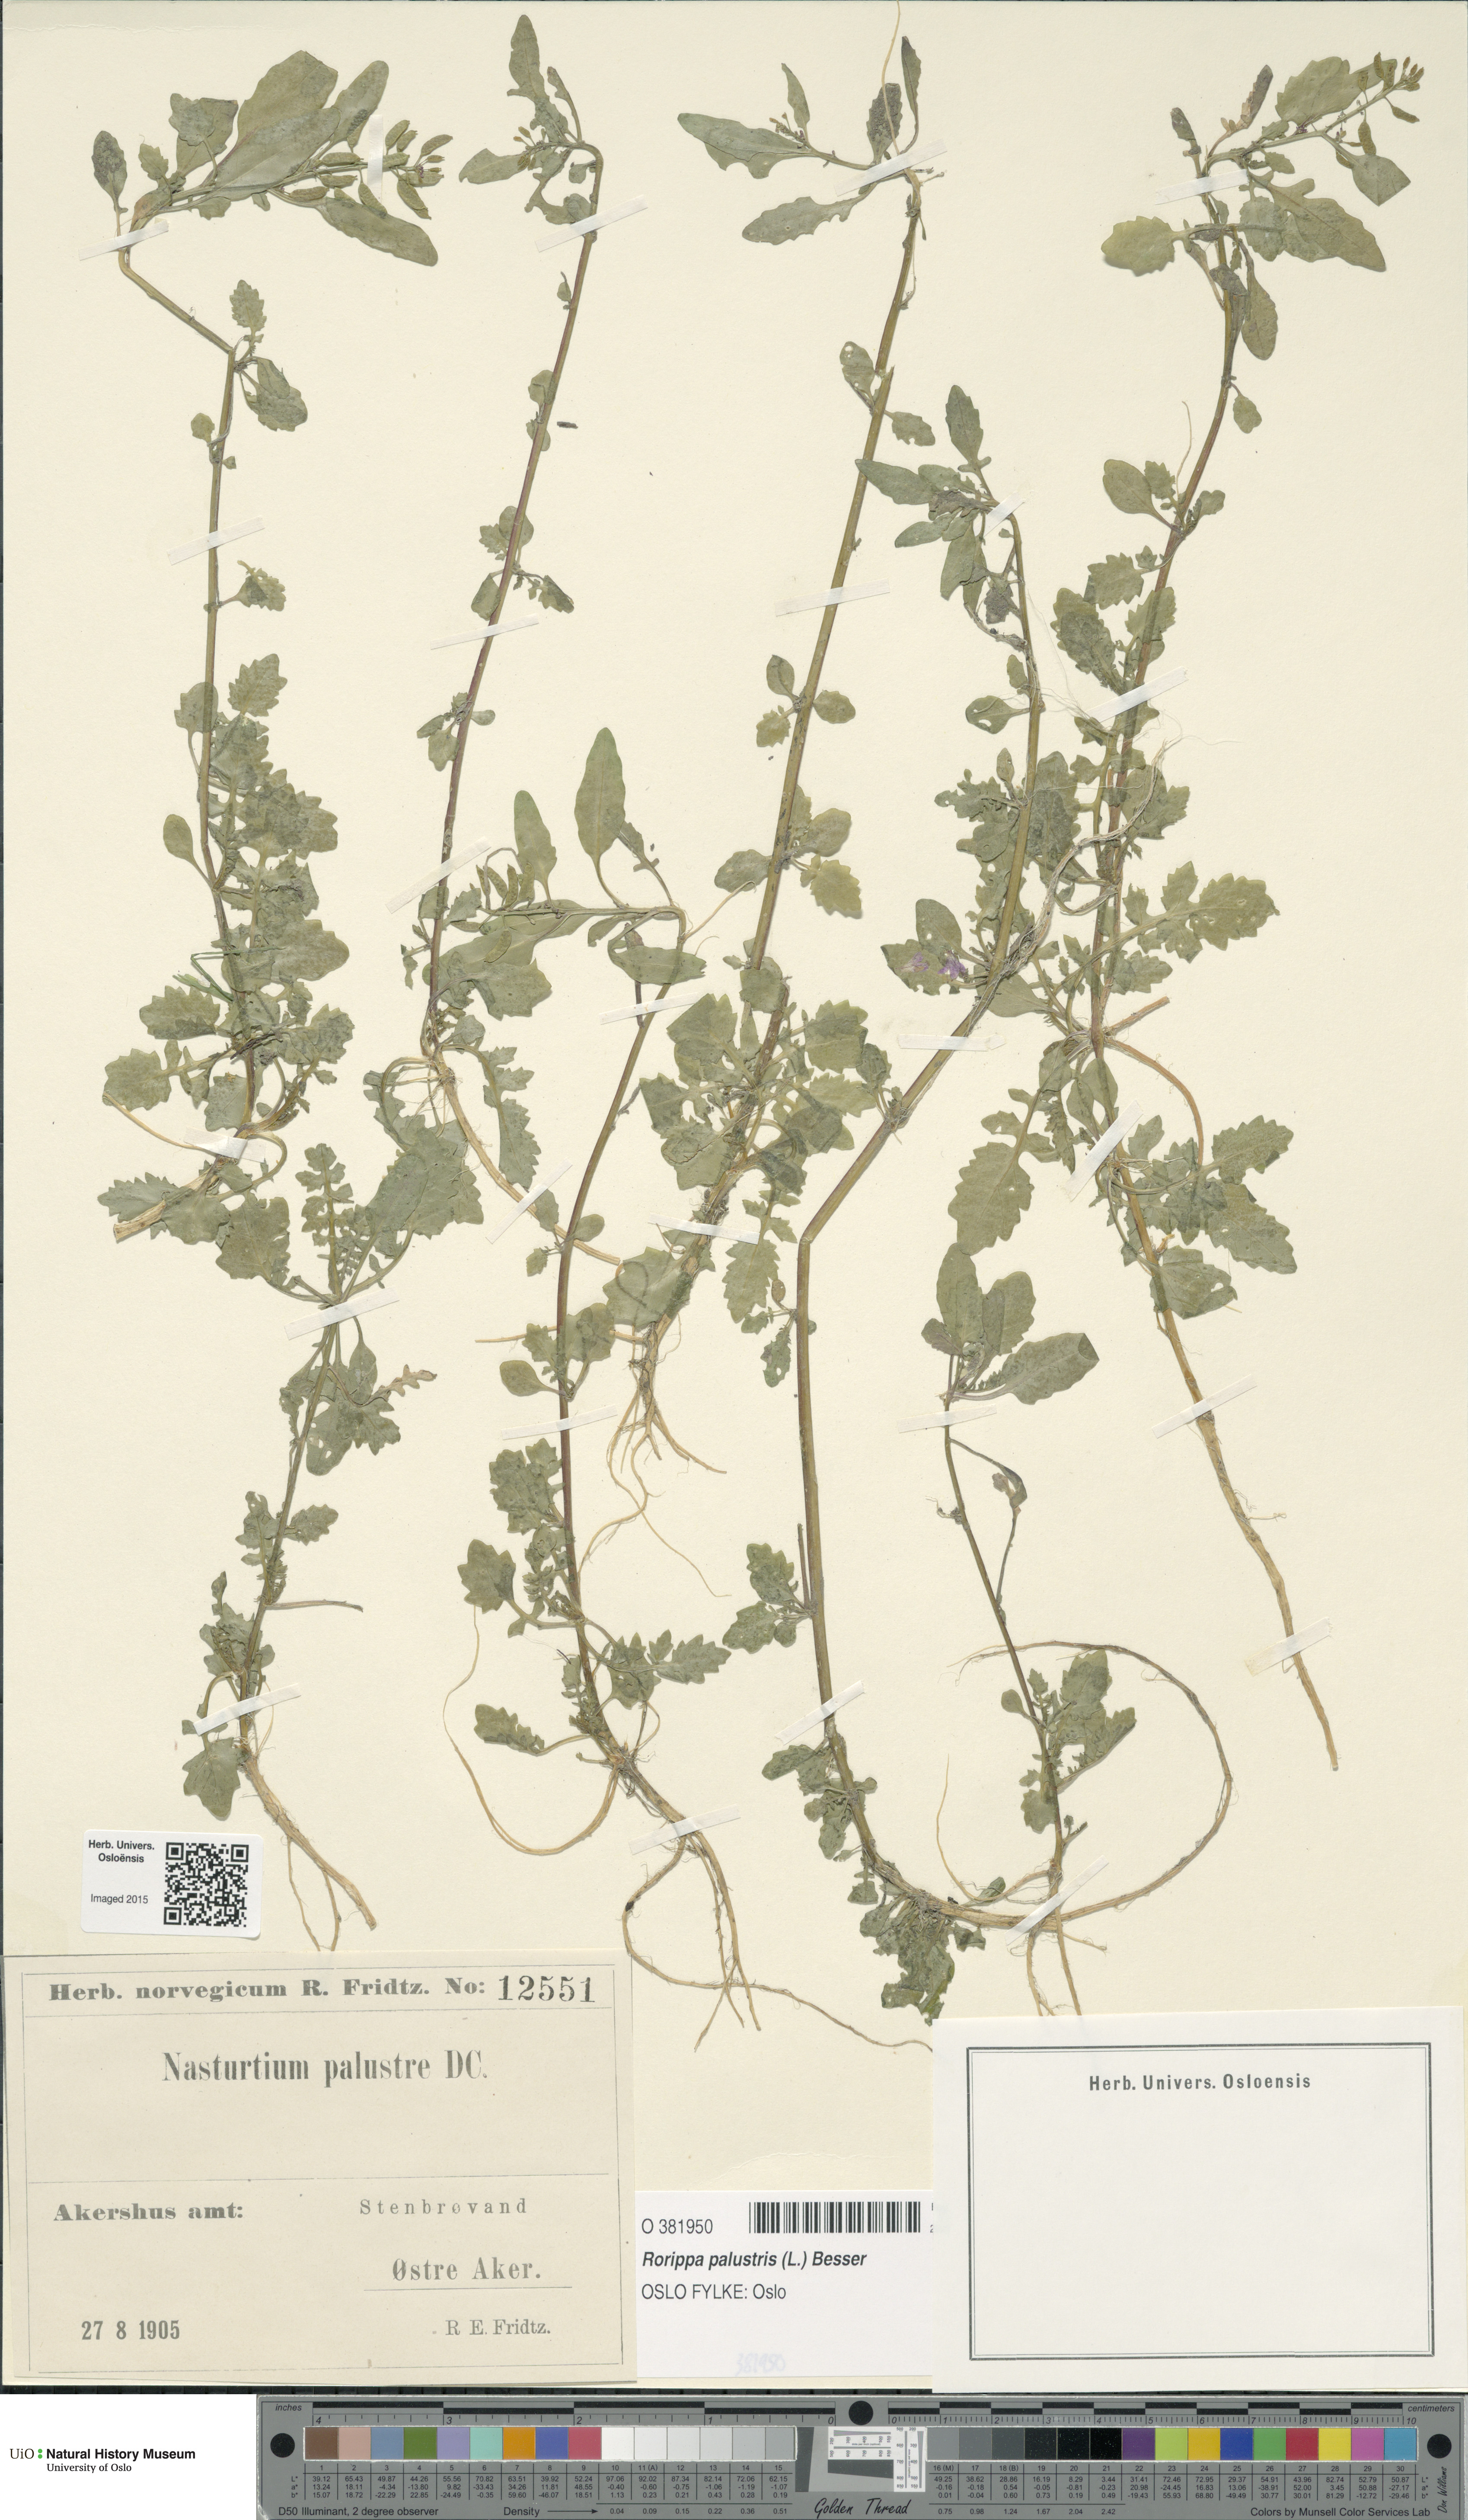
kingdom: Plantae
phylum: Tracheophyta
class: Magnoliopsida
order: Brassicales
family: Brassicaceae
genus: Rorippa
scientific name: Rorippa palustris
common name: Marsh yellow-cress
